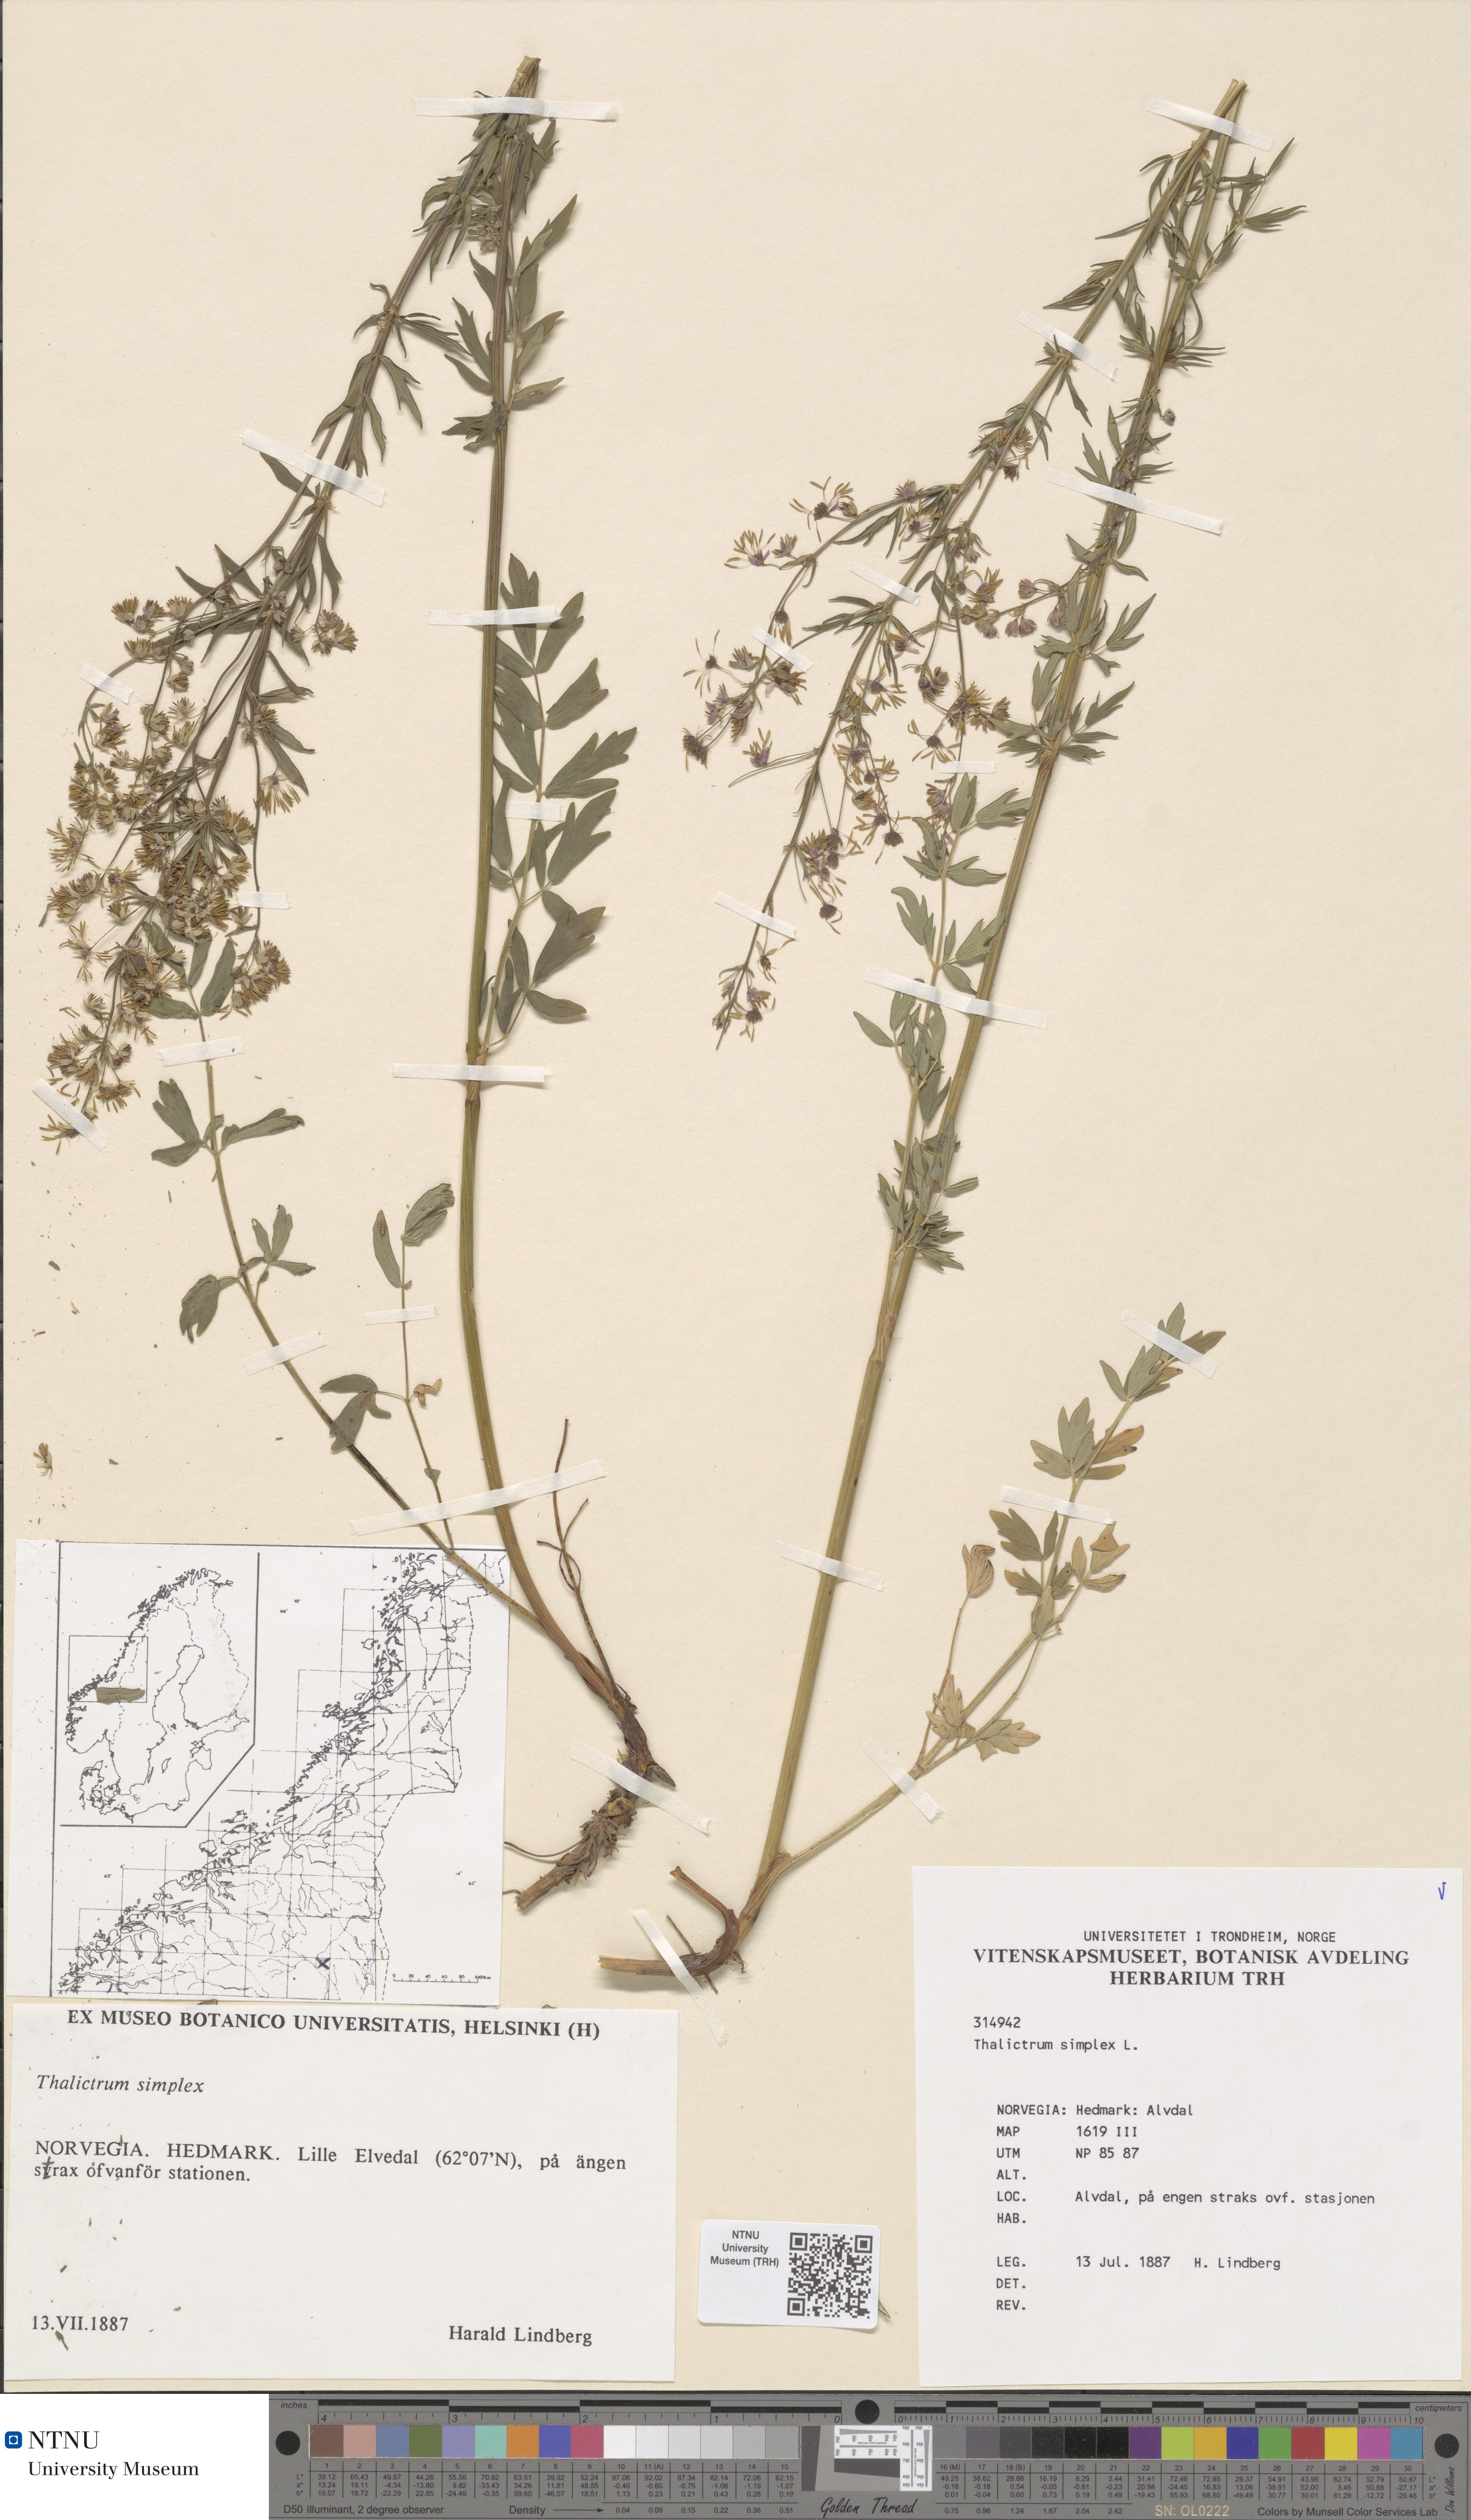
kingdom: Plantae
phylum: Tracheophyta
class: Magnoliopsida
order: Ranunculales
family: Ranunculaceae
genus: Thalictrum
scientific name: Thalictrum simplex
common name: Small meadow-rue
